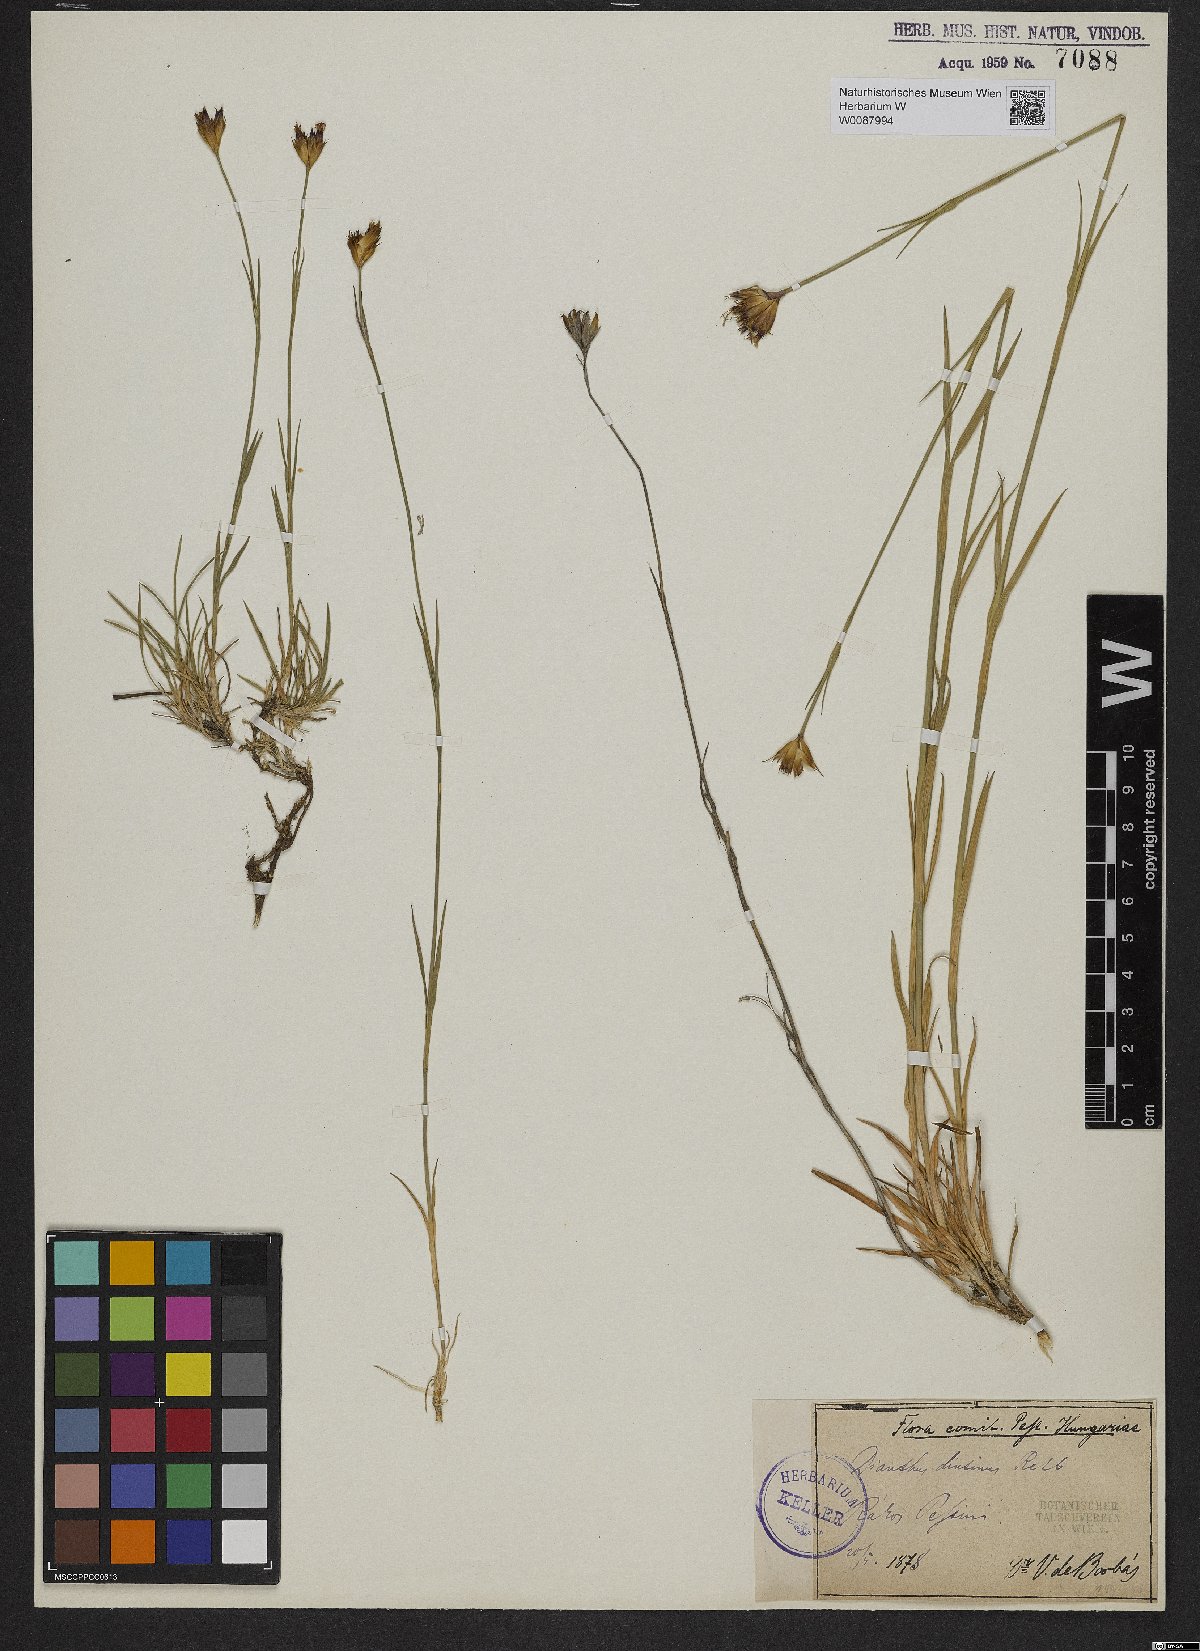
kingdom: Plantae
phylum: Tracheophyta
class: Magnoliopsida
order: Caryophyllales
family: Caryophyllaceae
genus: Dianthus
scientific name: Dianthus pontederae
